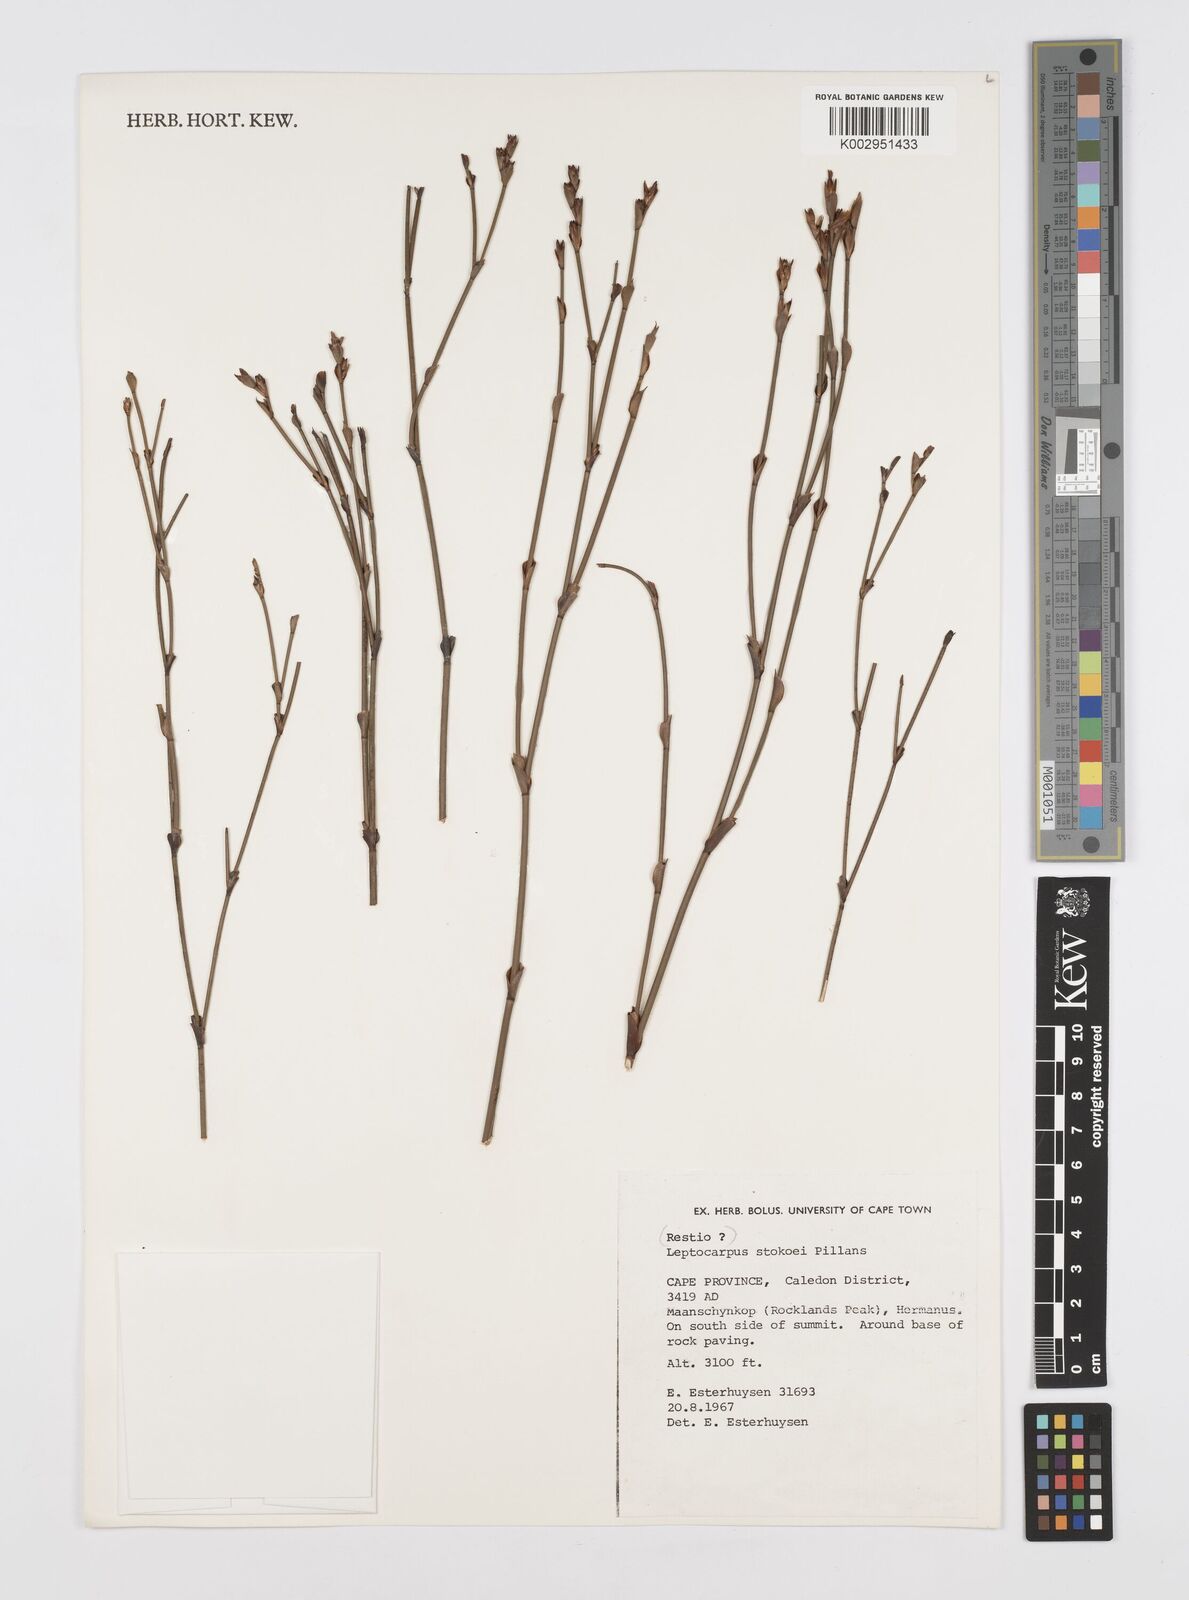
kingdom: Plantae
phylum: Tracheophyta
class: Liliopsida
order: Poales
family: Restionaceae
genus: Restio
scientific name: Restio pillansii
